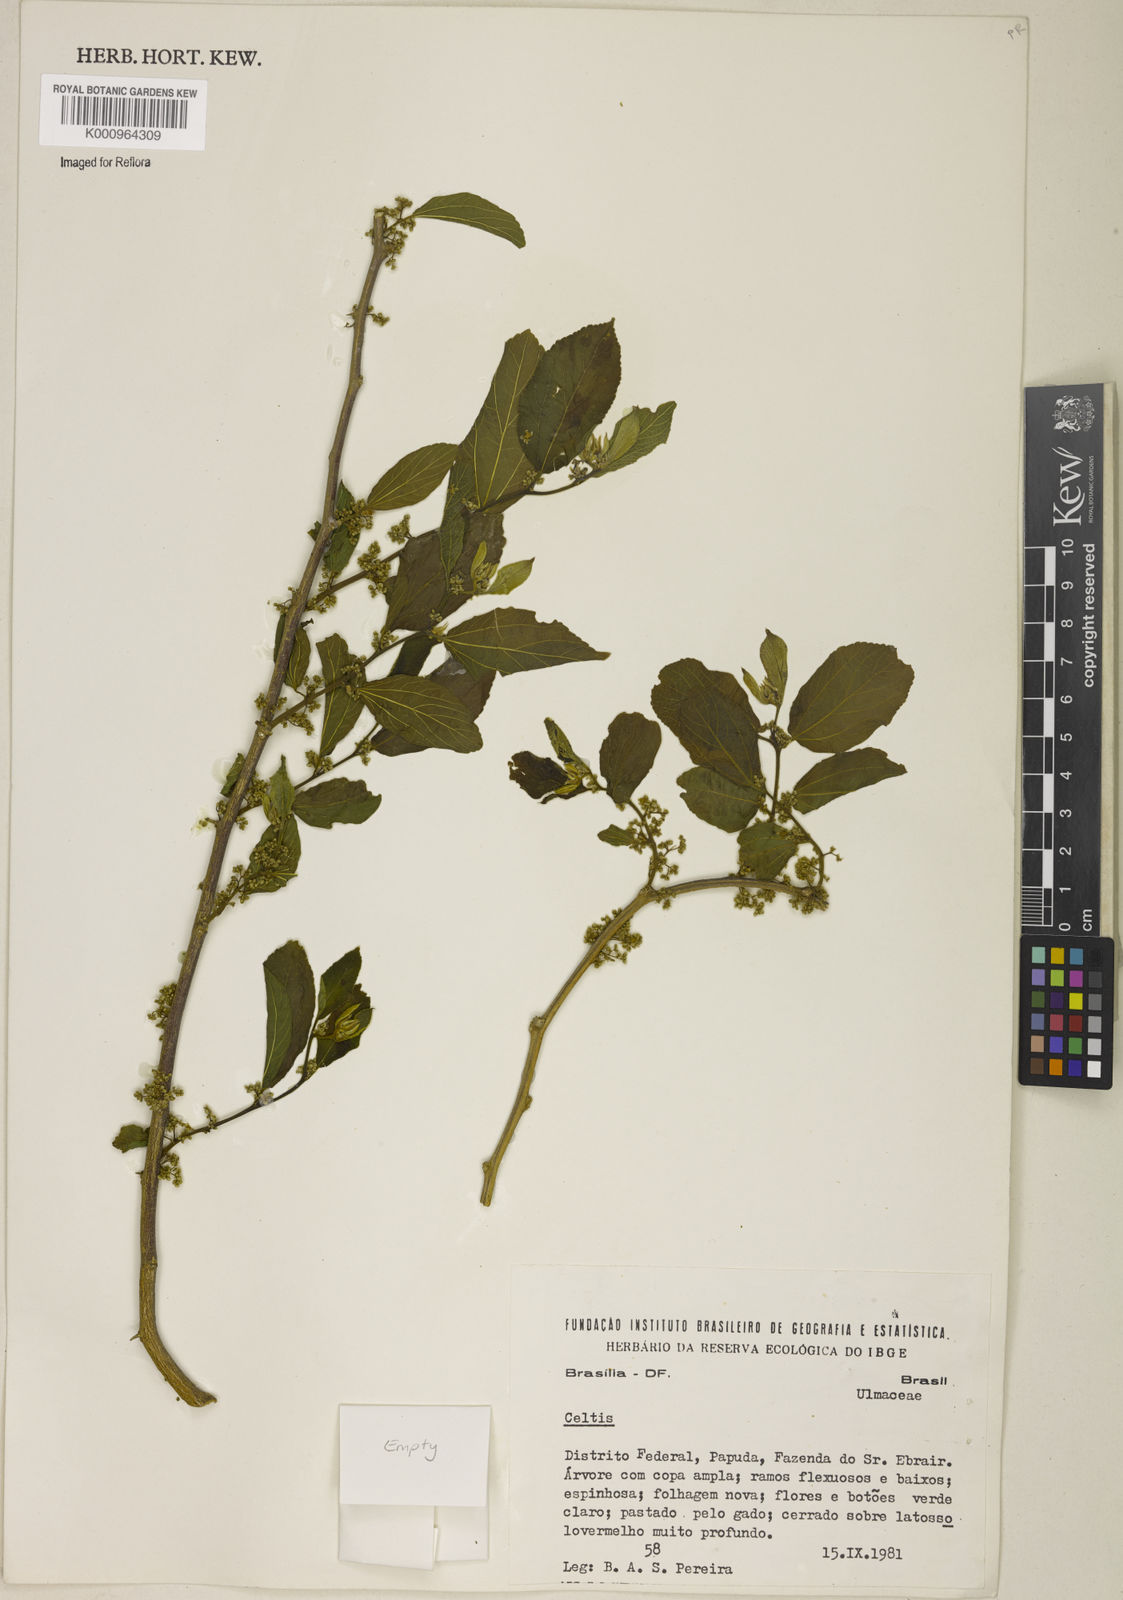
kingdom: Plantae
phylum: Tracheophyta
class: Magnoliopsida
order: Rosales
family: Cannabaceae
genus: Celtis
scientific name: Celtis
